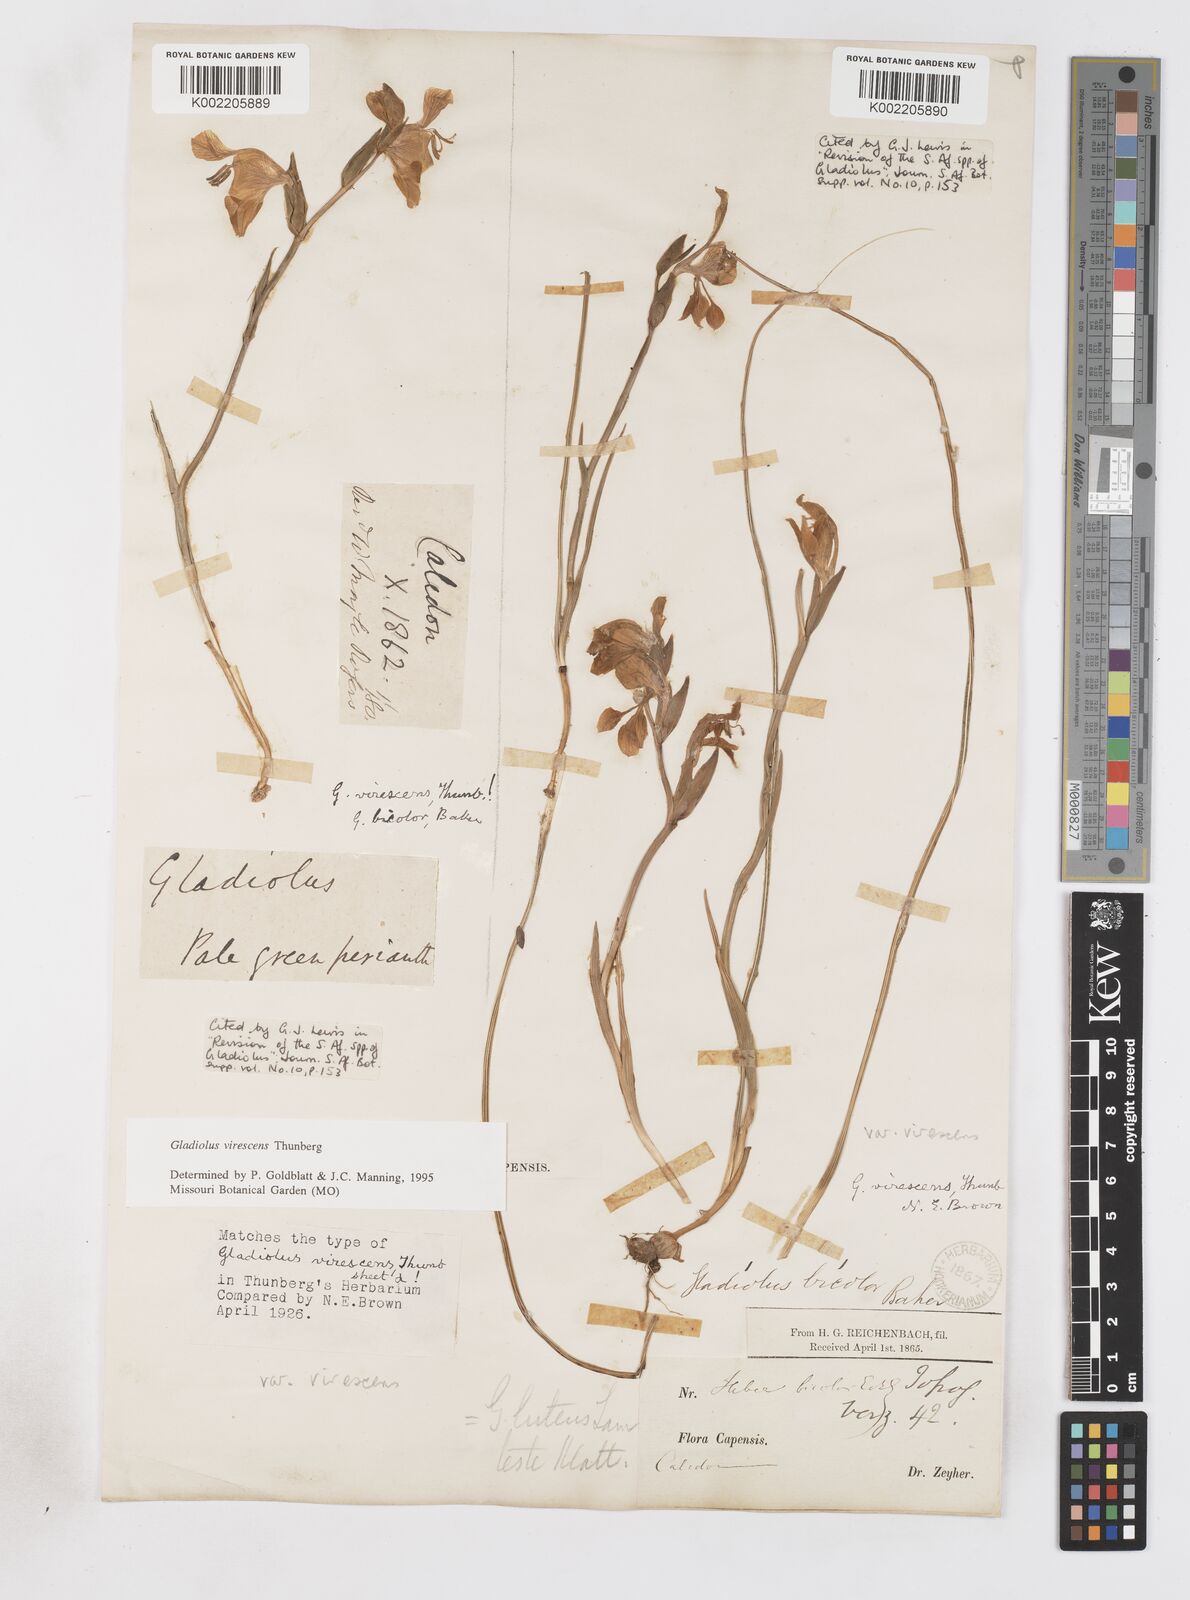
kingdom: Plantae
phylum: Tracheophyta
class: Liliopsida
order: Asparagales
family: Iridaceae
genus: Gladiolus
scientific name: Gladiolus virescens
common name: Yellow kalkoentjie
